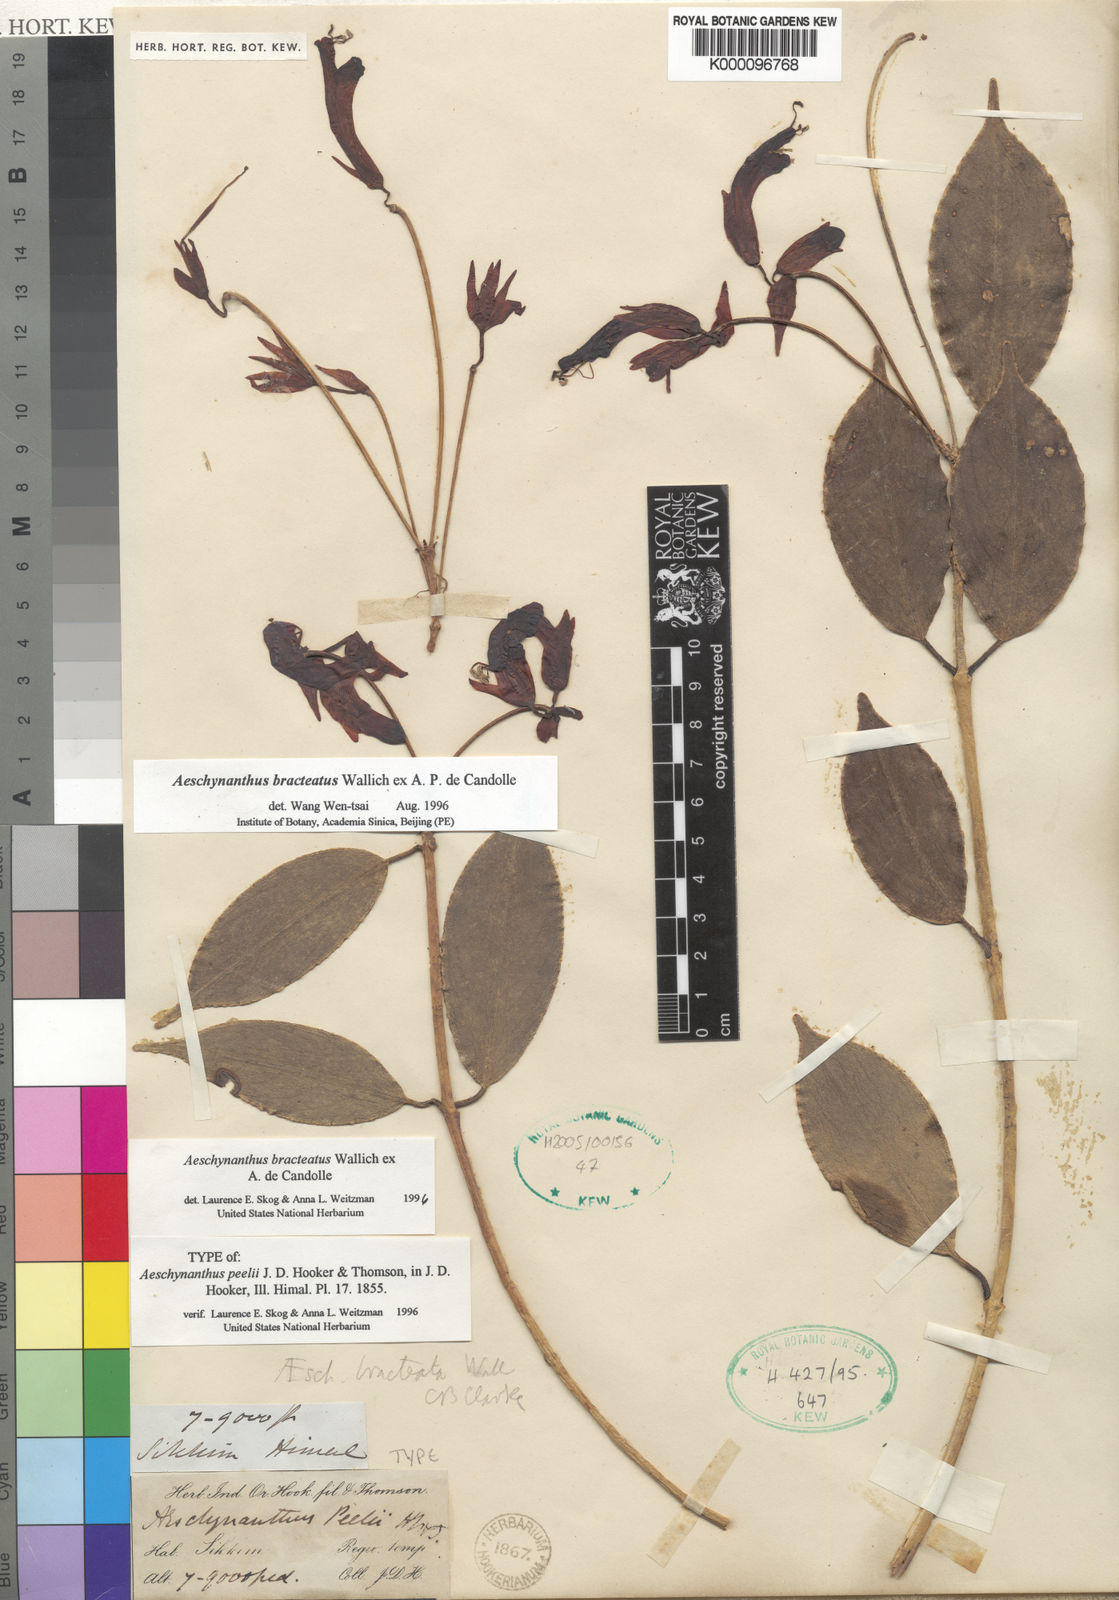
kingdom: Plantae
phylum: Tracheophyta
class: Magnoliopsida
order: Lamiales
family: Gesneriaceae
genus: Aeschynanthus
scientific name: Aeschynanthus bracteatus
